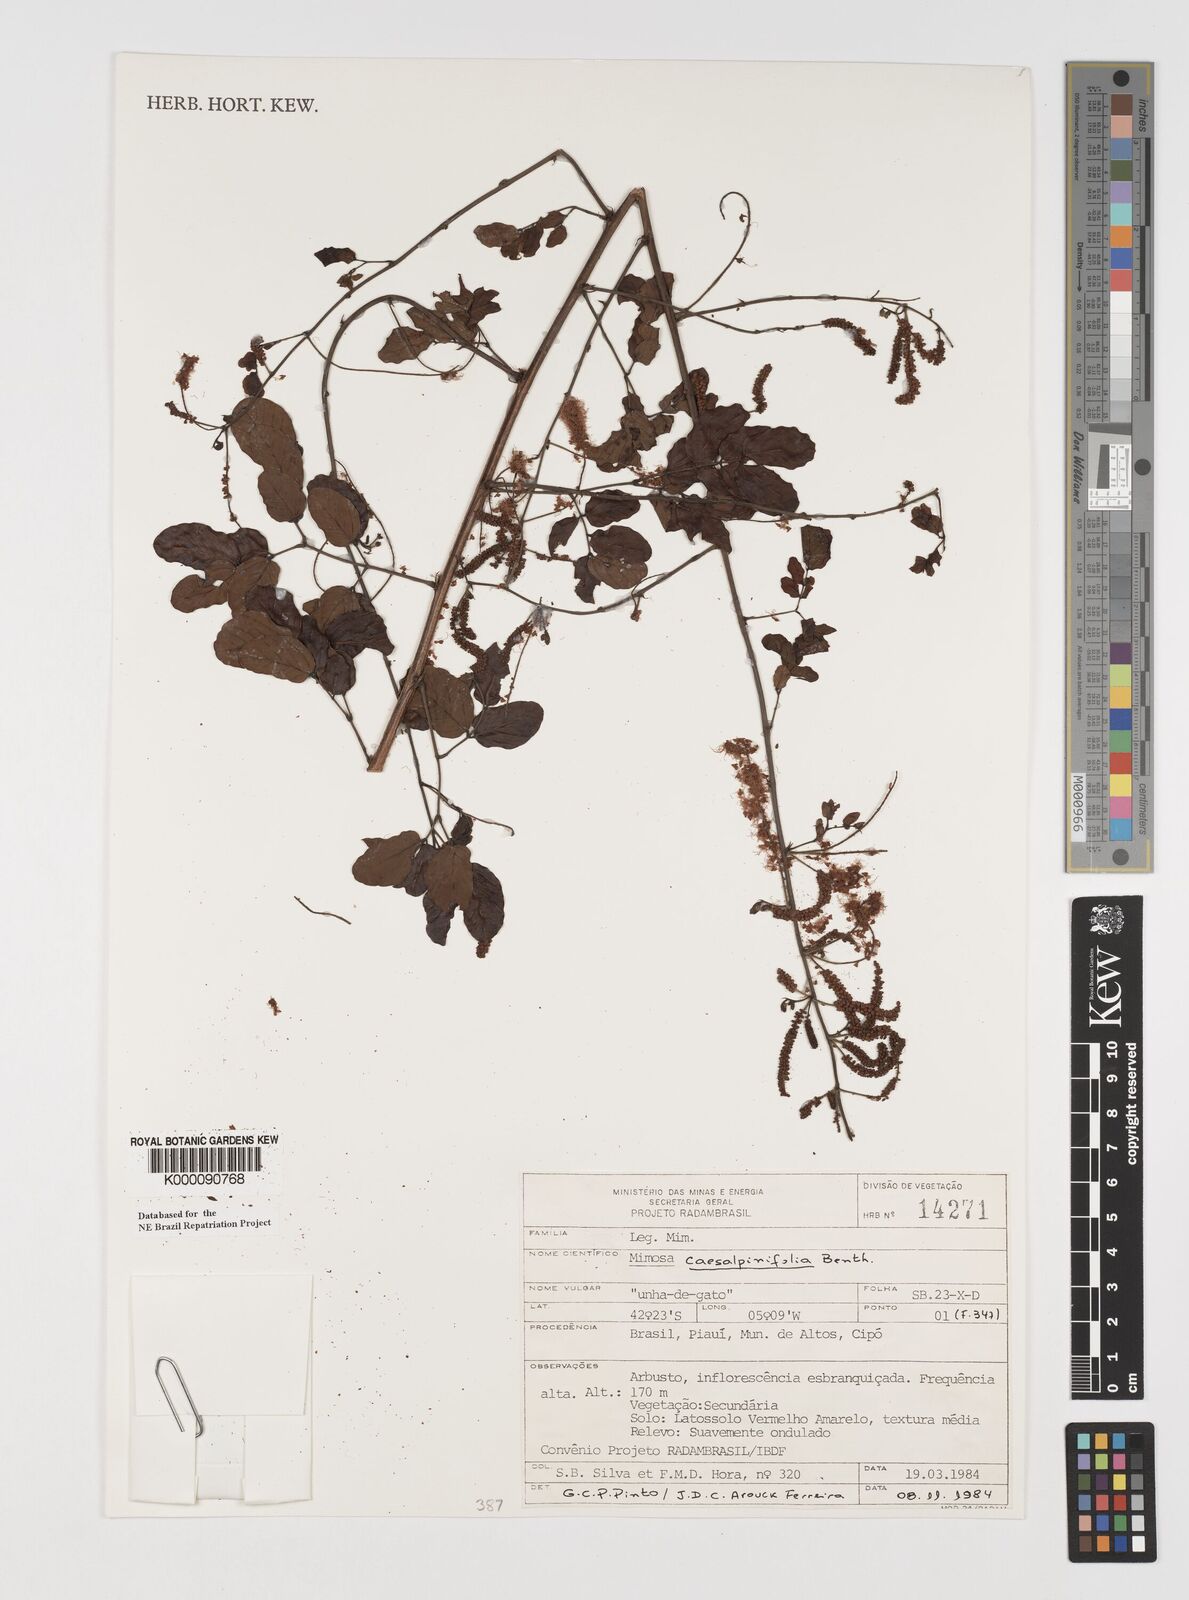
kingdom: Plantae
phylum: Tracheophyta
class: Magnoliopsida
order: Fabales
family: Fabaceae
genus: Mimosa
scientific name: Mimosa caesalpiniifolia
